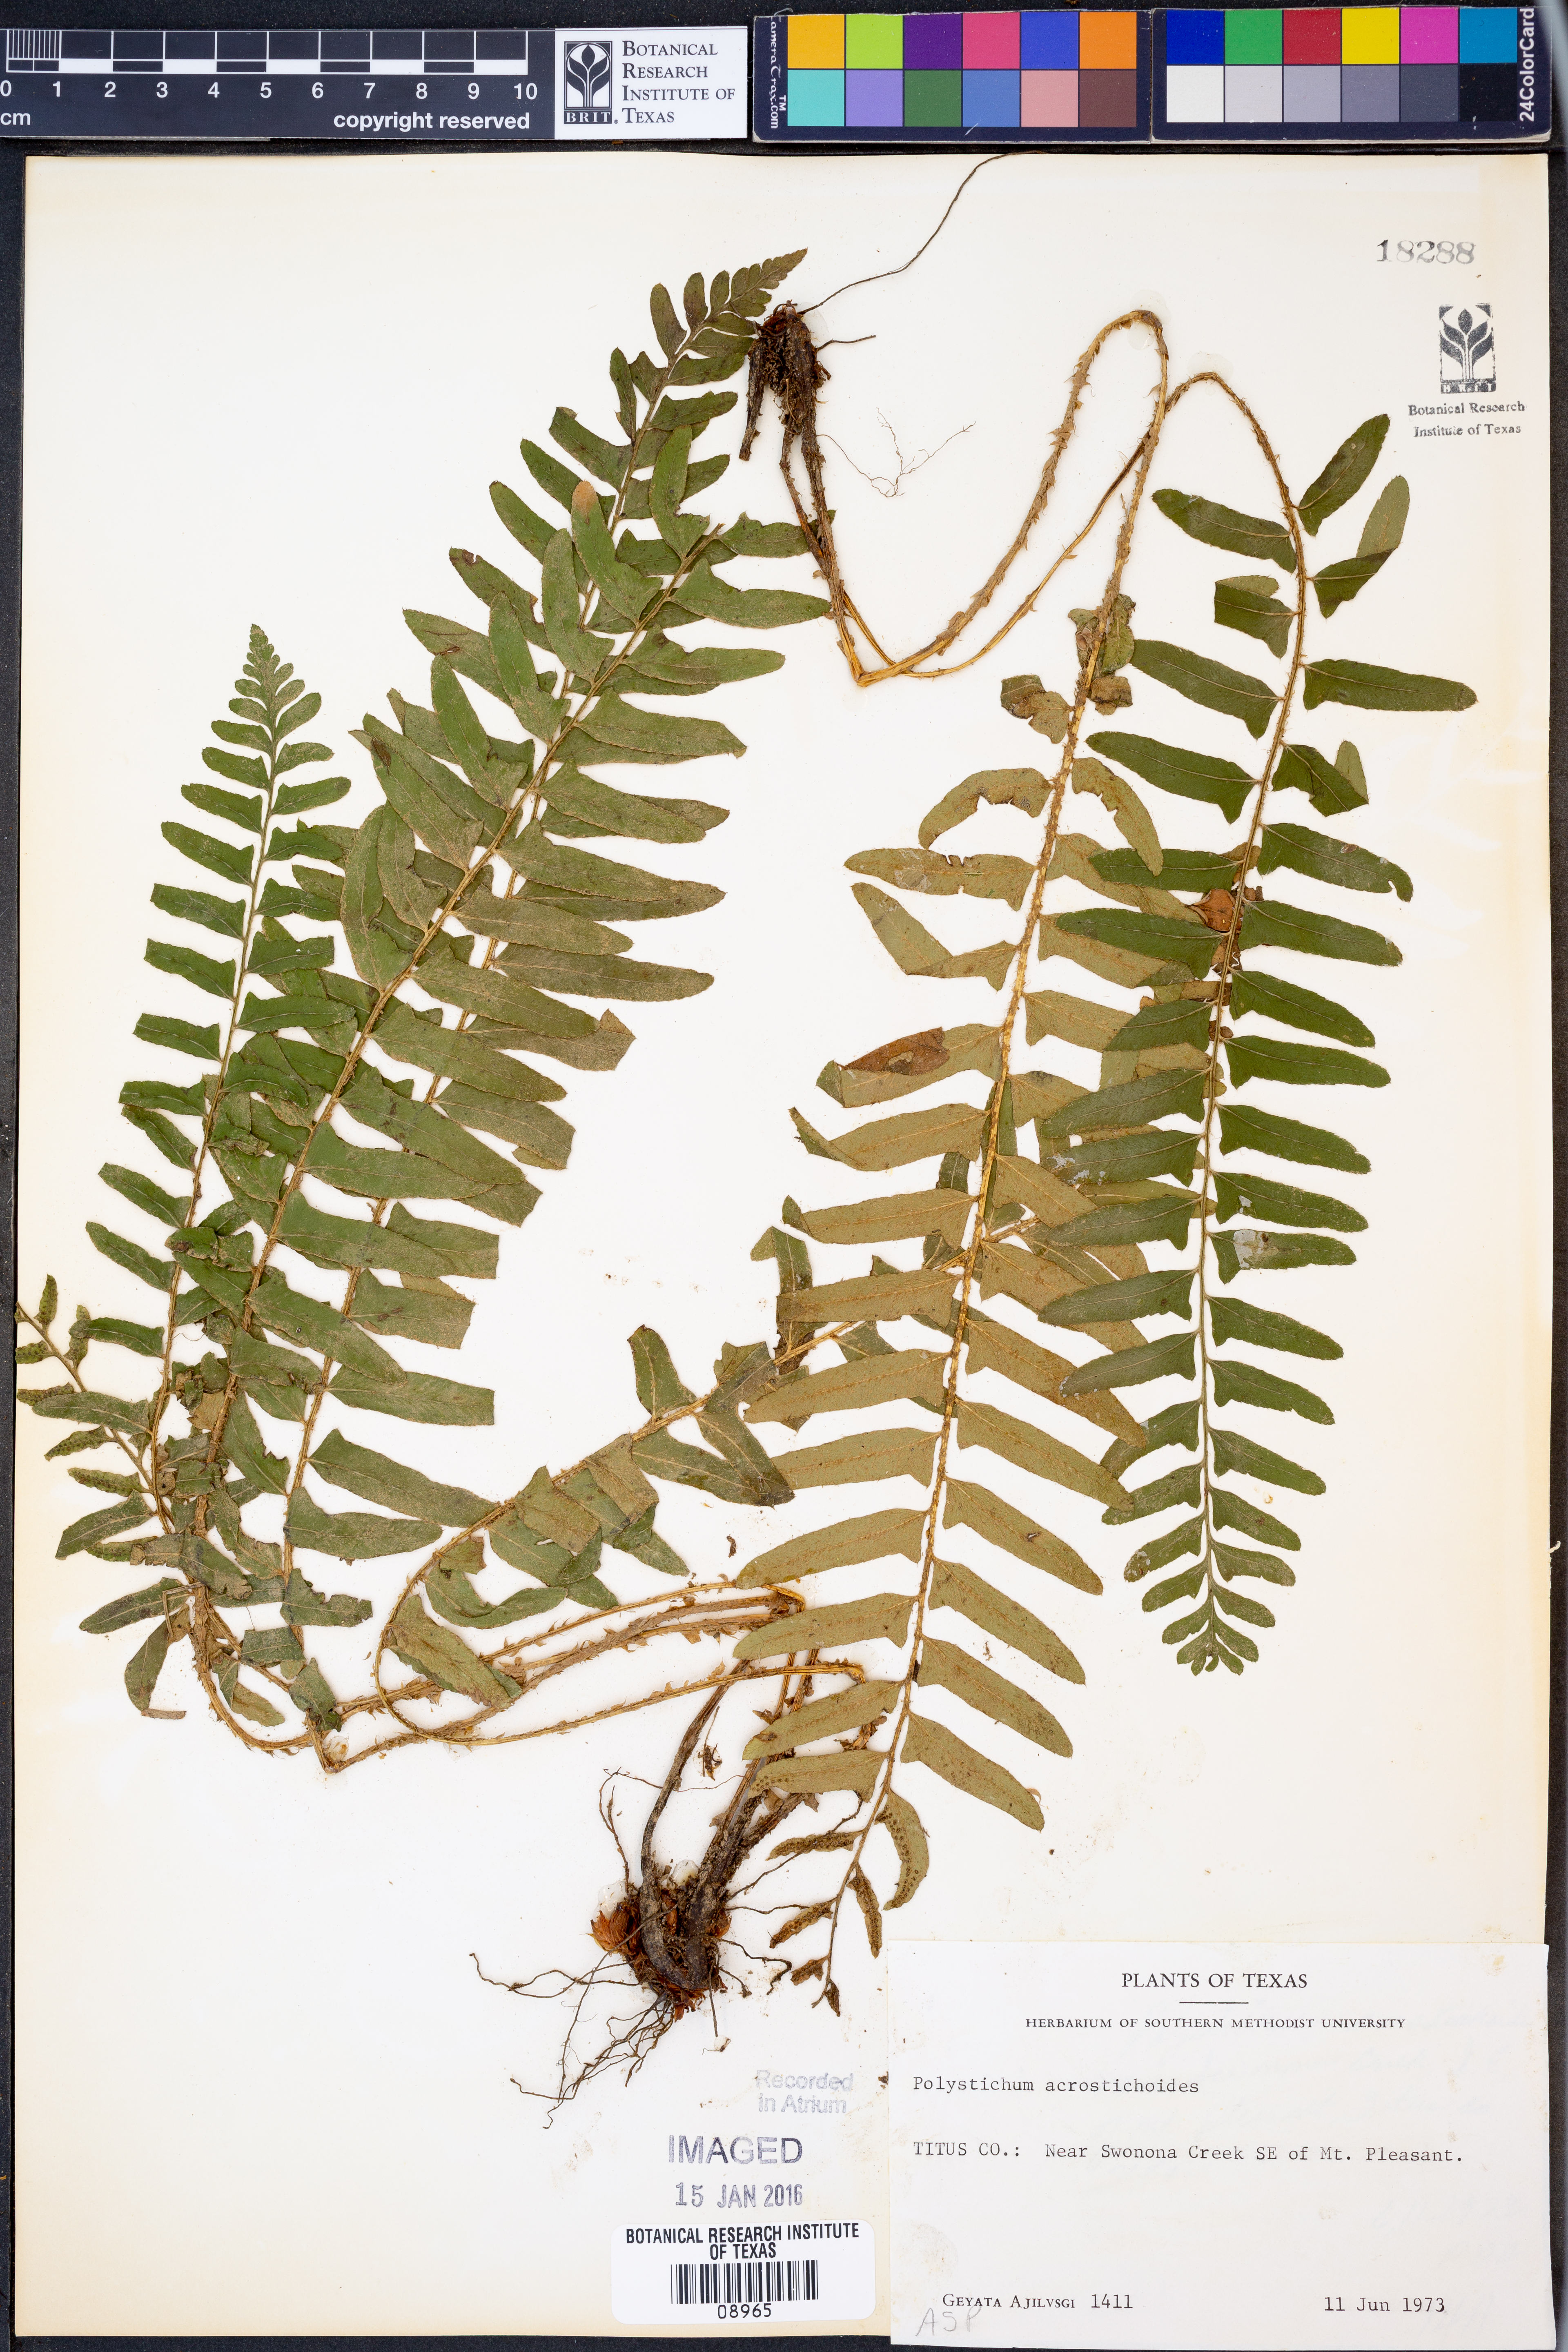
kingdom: Plantae
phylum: Tracheophyta
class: Polypodiopsida
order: Polypodiales
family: Dryopteridaceae
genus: Polystichum
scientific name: Polystichum acrostichoides
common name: Christmas fern
